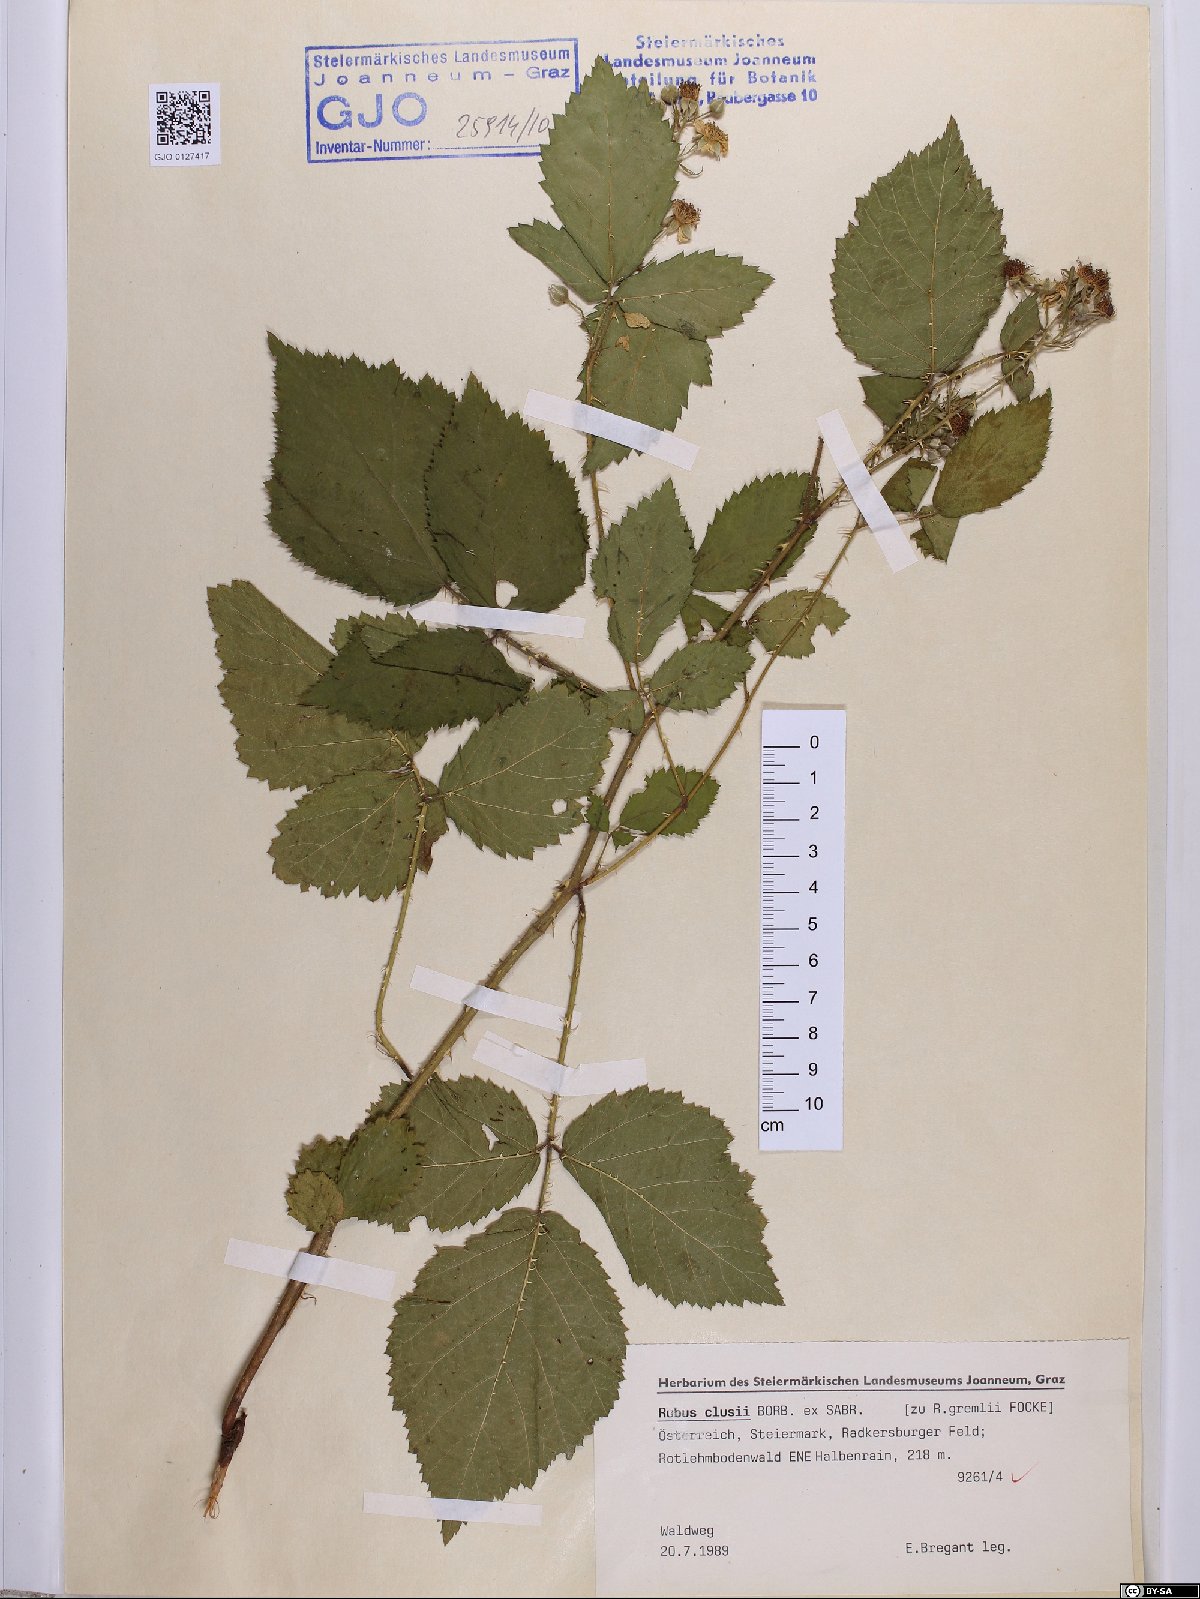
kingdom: Plantae
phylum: Tracheophyta
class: Magnoliopsida
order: Rosales
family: Rosaceae
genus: Rubus
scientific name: Rubus clusii
